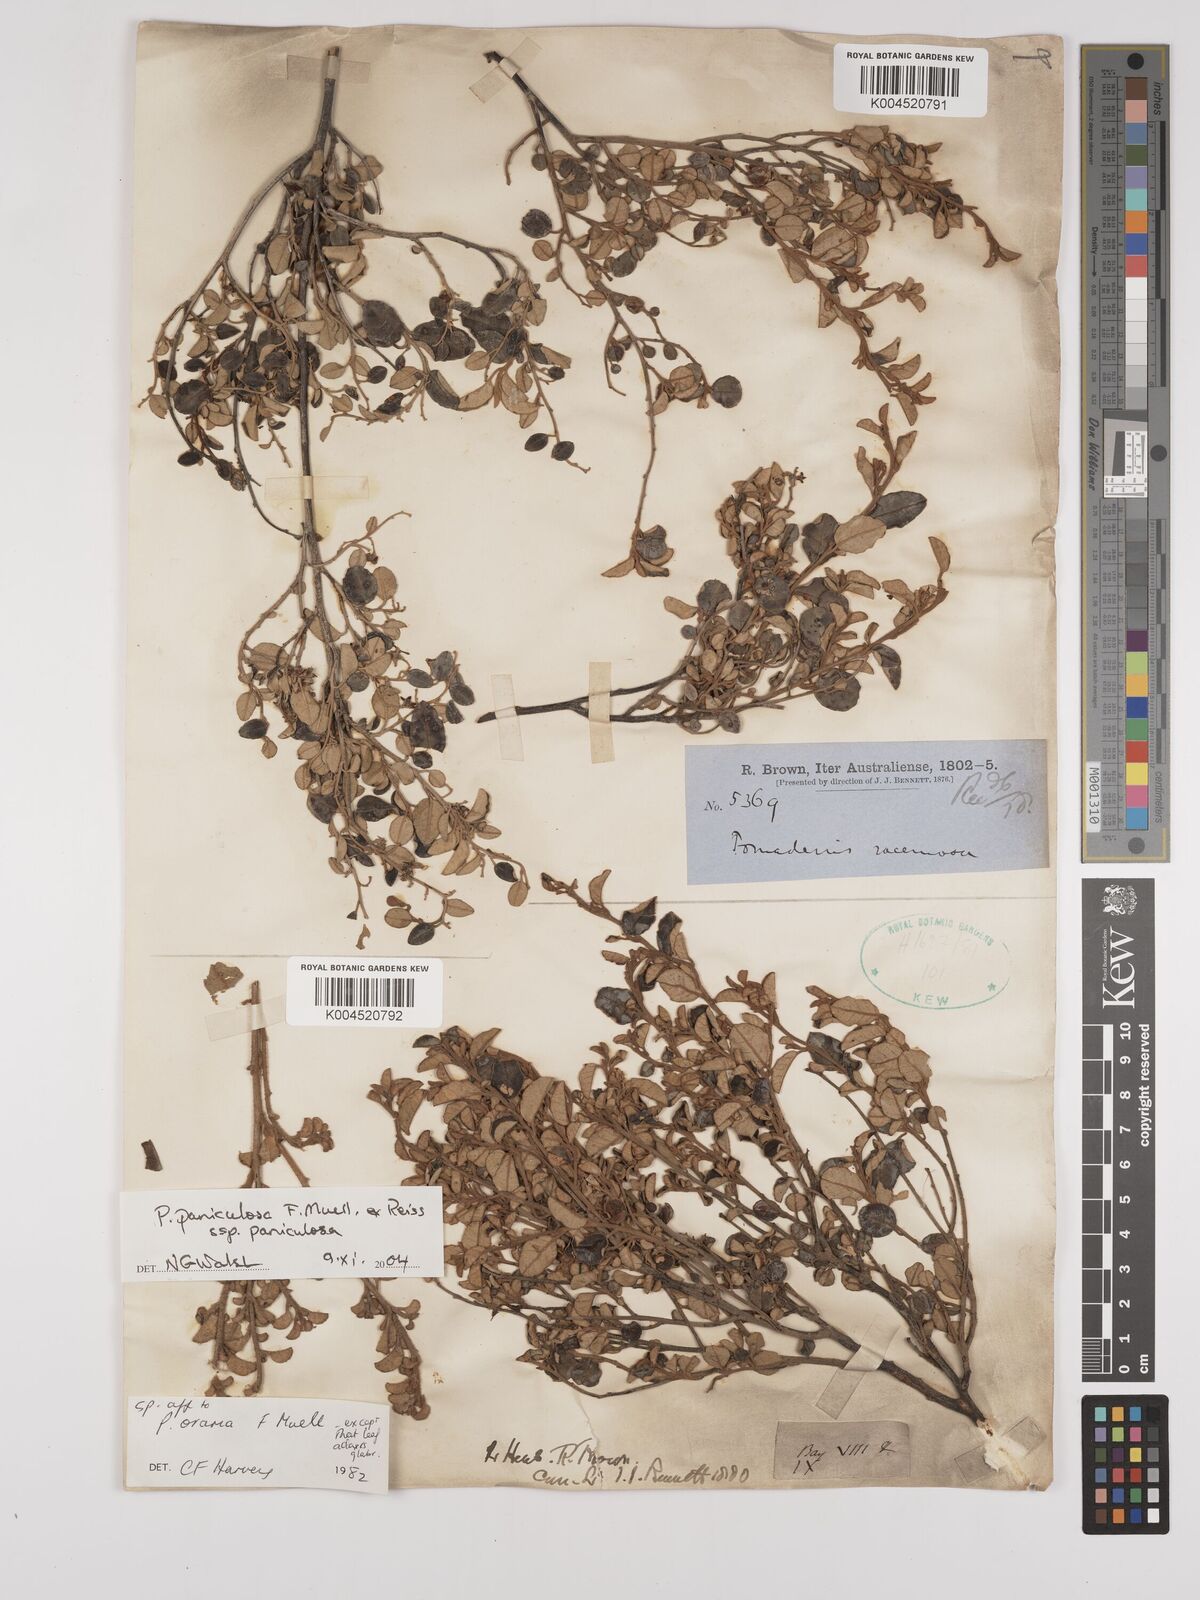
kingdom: Plantae
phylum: Tracheophyta
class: Magnoliopsida
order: Rosales
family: Rhamnaceae
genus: Pomaderris
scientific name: Pomaderris paniculosa
